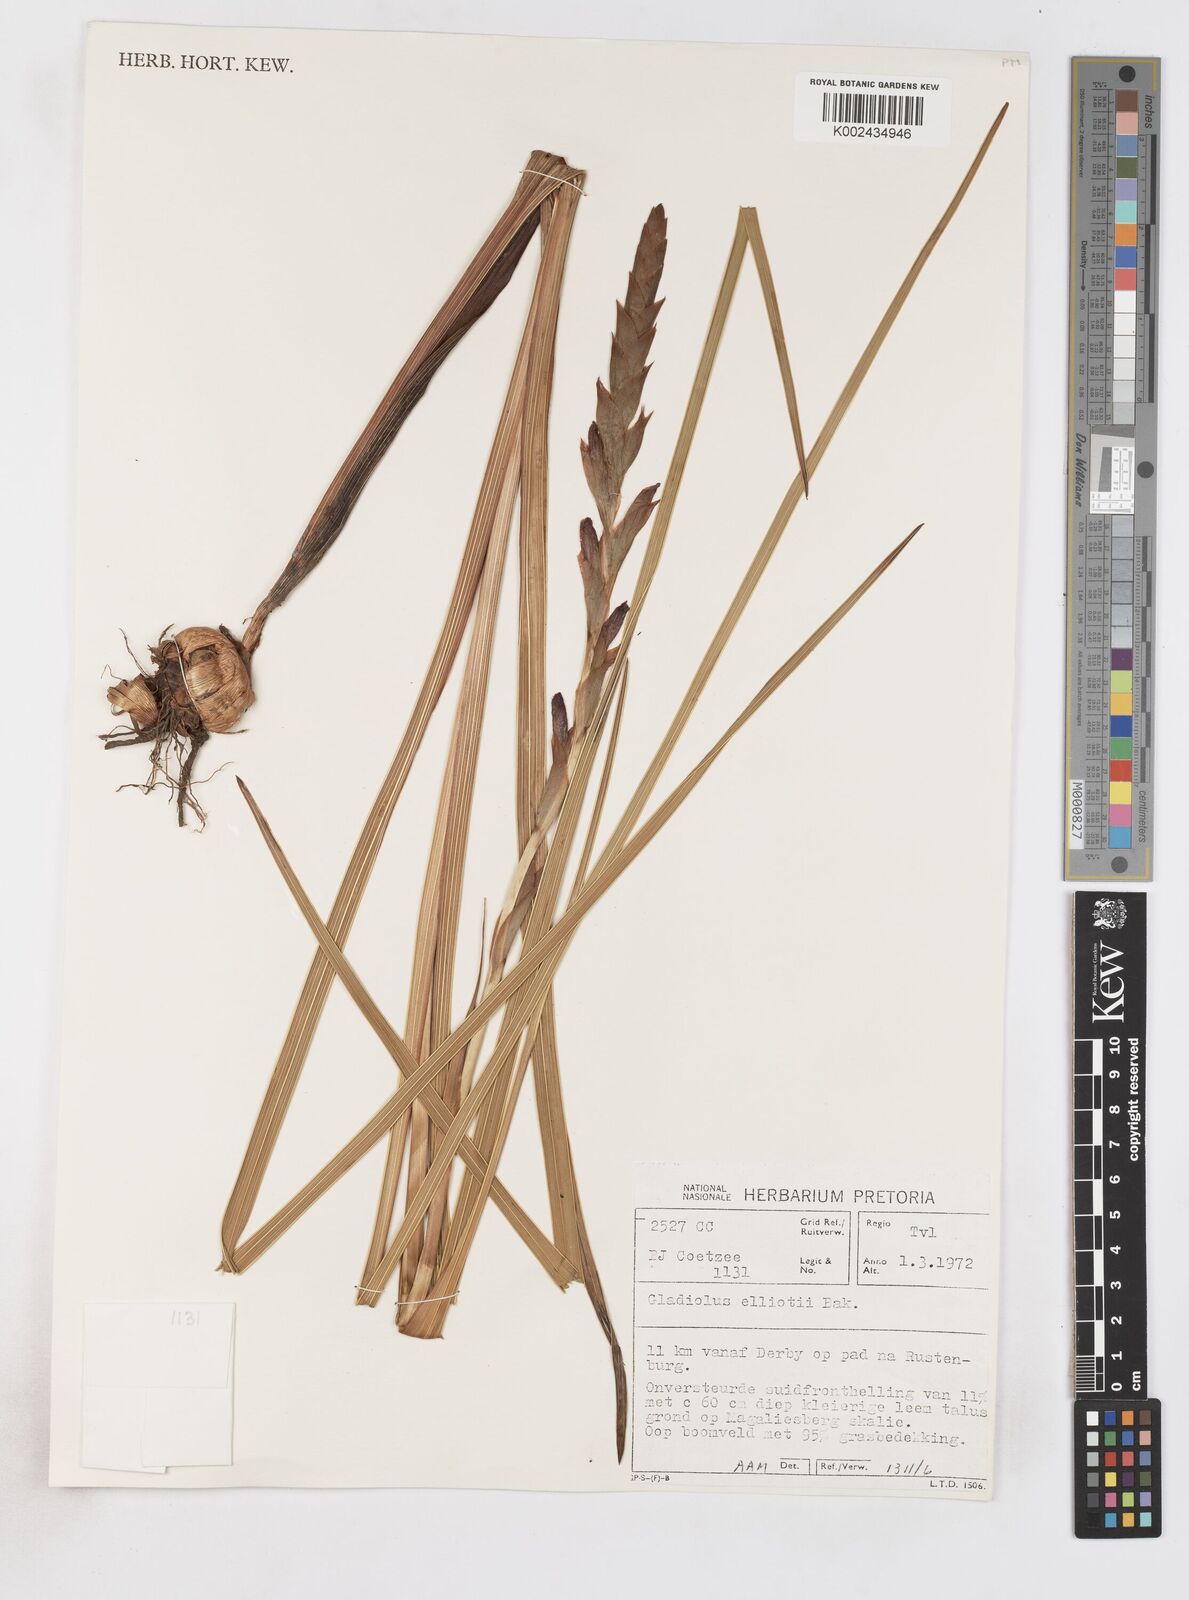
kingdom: Plantae
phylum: Tracheophyta
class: Liliopsida
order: Asparagales
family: Iridaceae
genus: Gladiolus
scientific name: Gladiolus sericeovillosus
